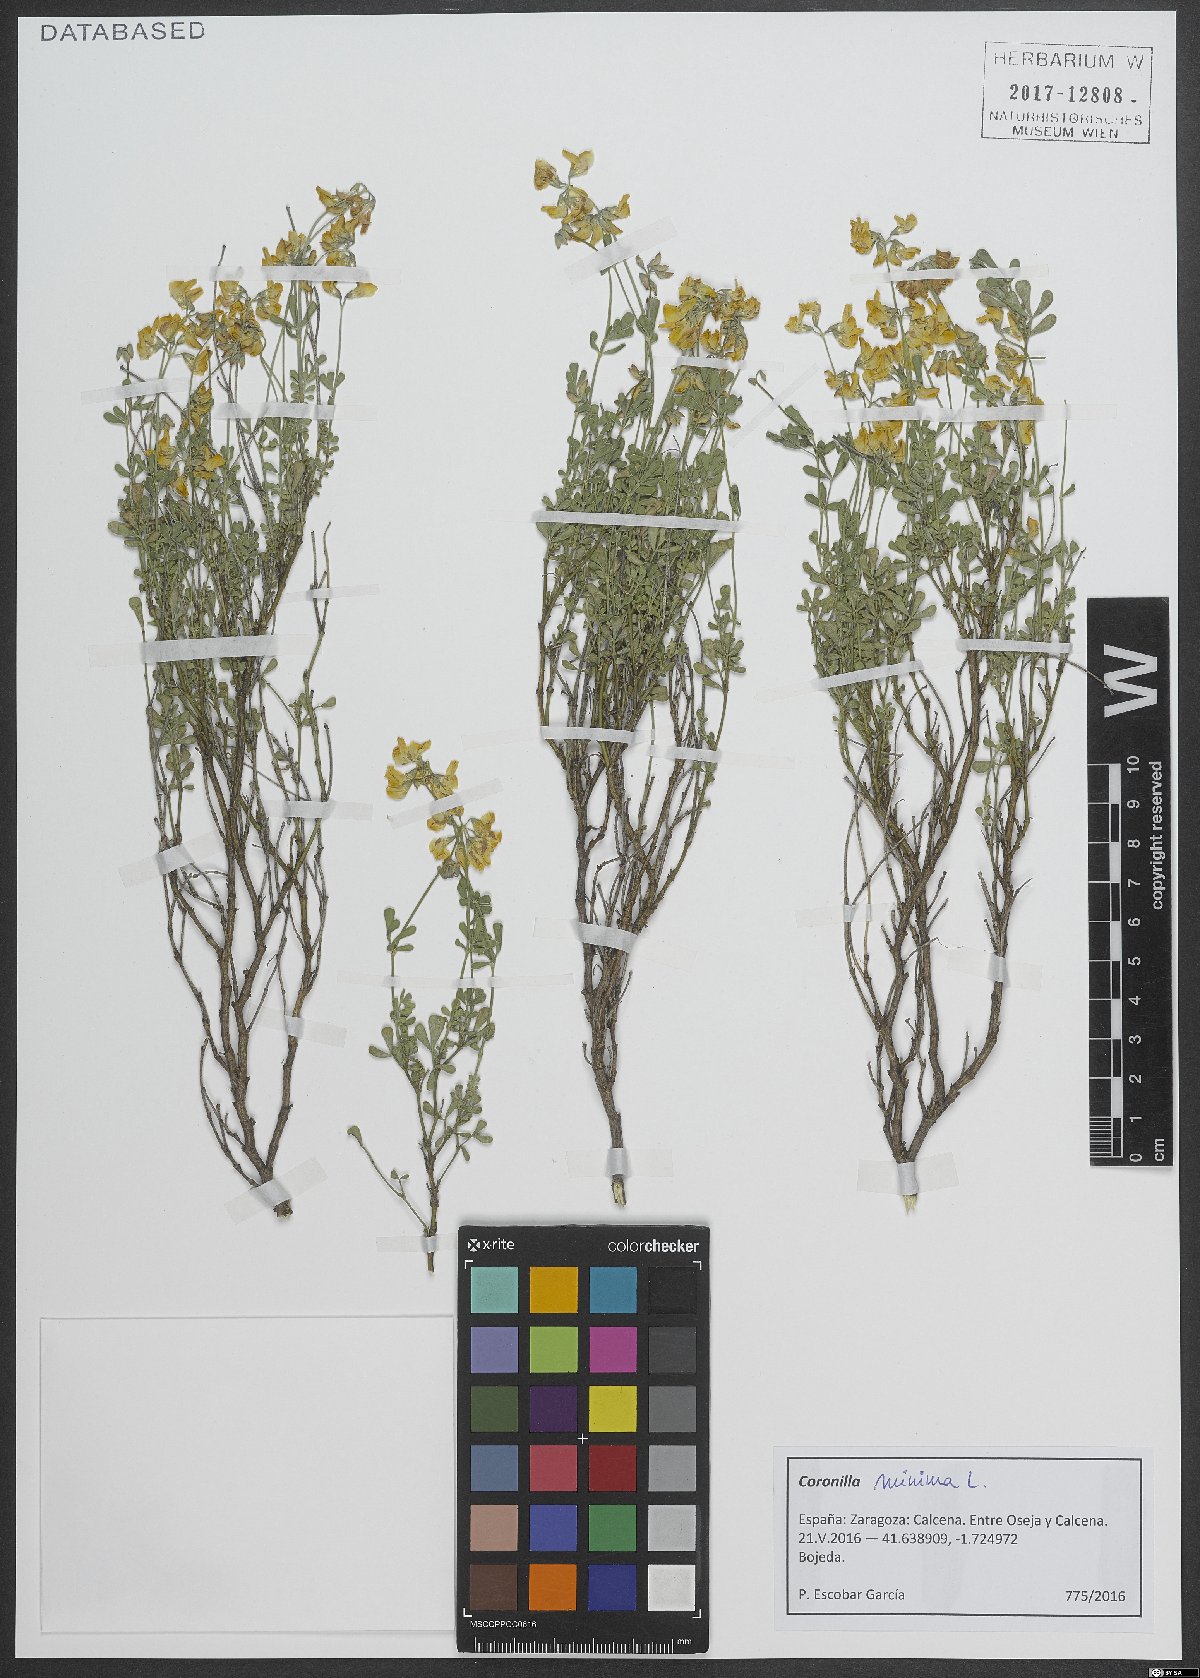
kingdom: Plantae
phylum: Tracheophyta
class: Magnoliopsida
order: Fabales
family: Fabaceae
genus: Coronilla
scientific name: Coronilla minima
